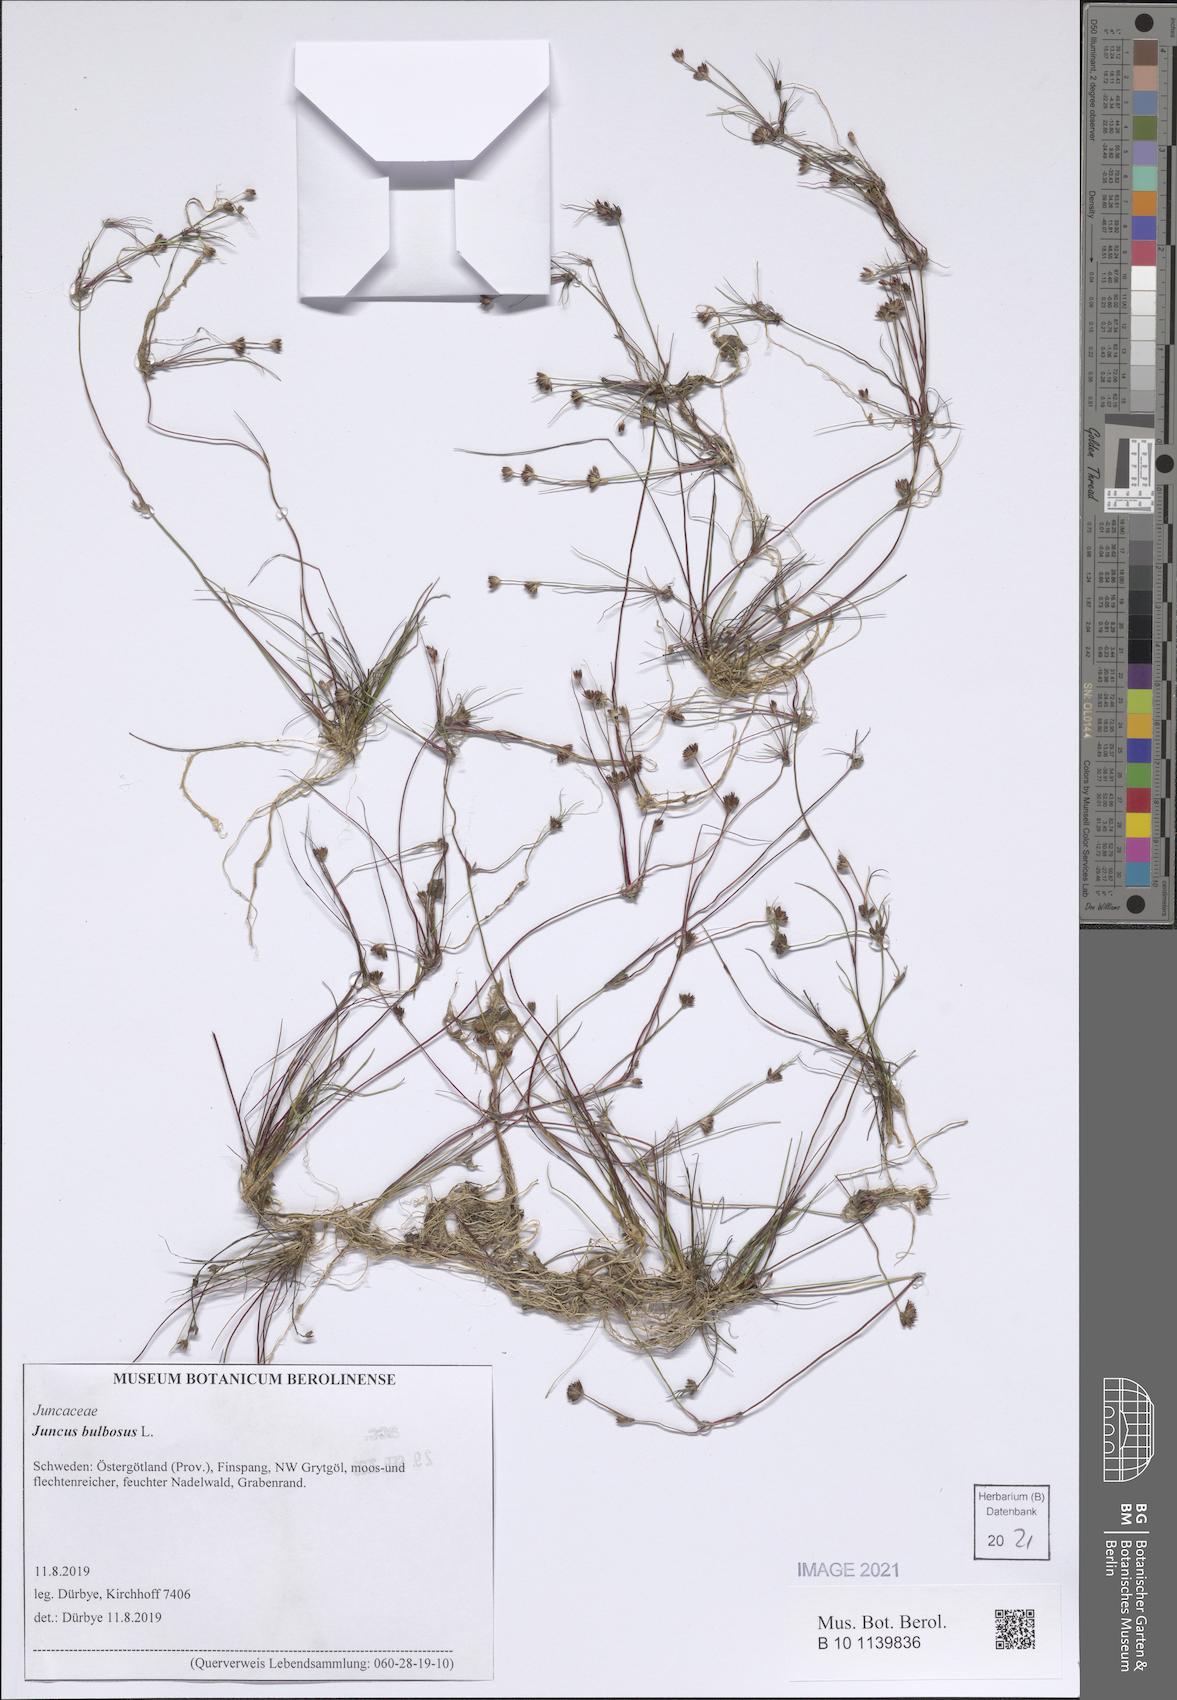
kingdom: Plantae
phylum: Tracheophyta
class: Liliopsida
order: Poales
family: Juncaceae
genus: Juncus
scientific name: Juncus bulbosus
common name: Bulbous rush
